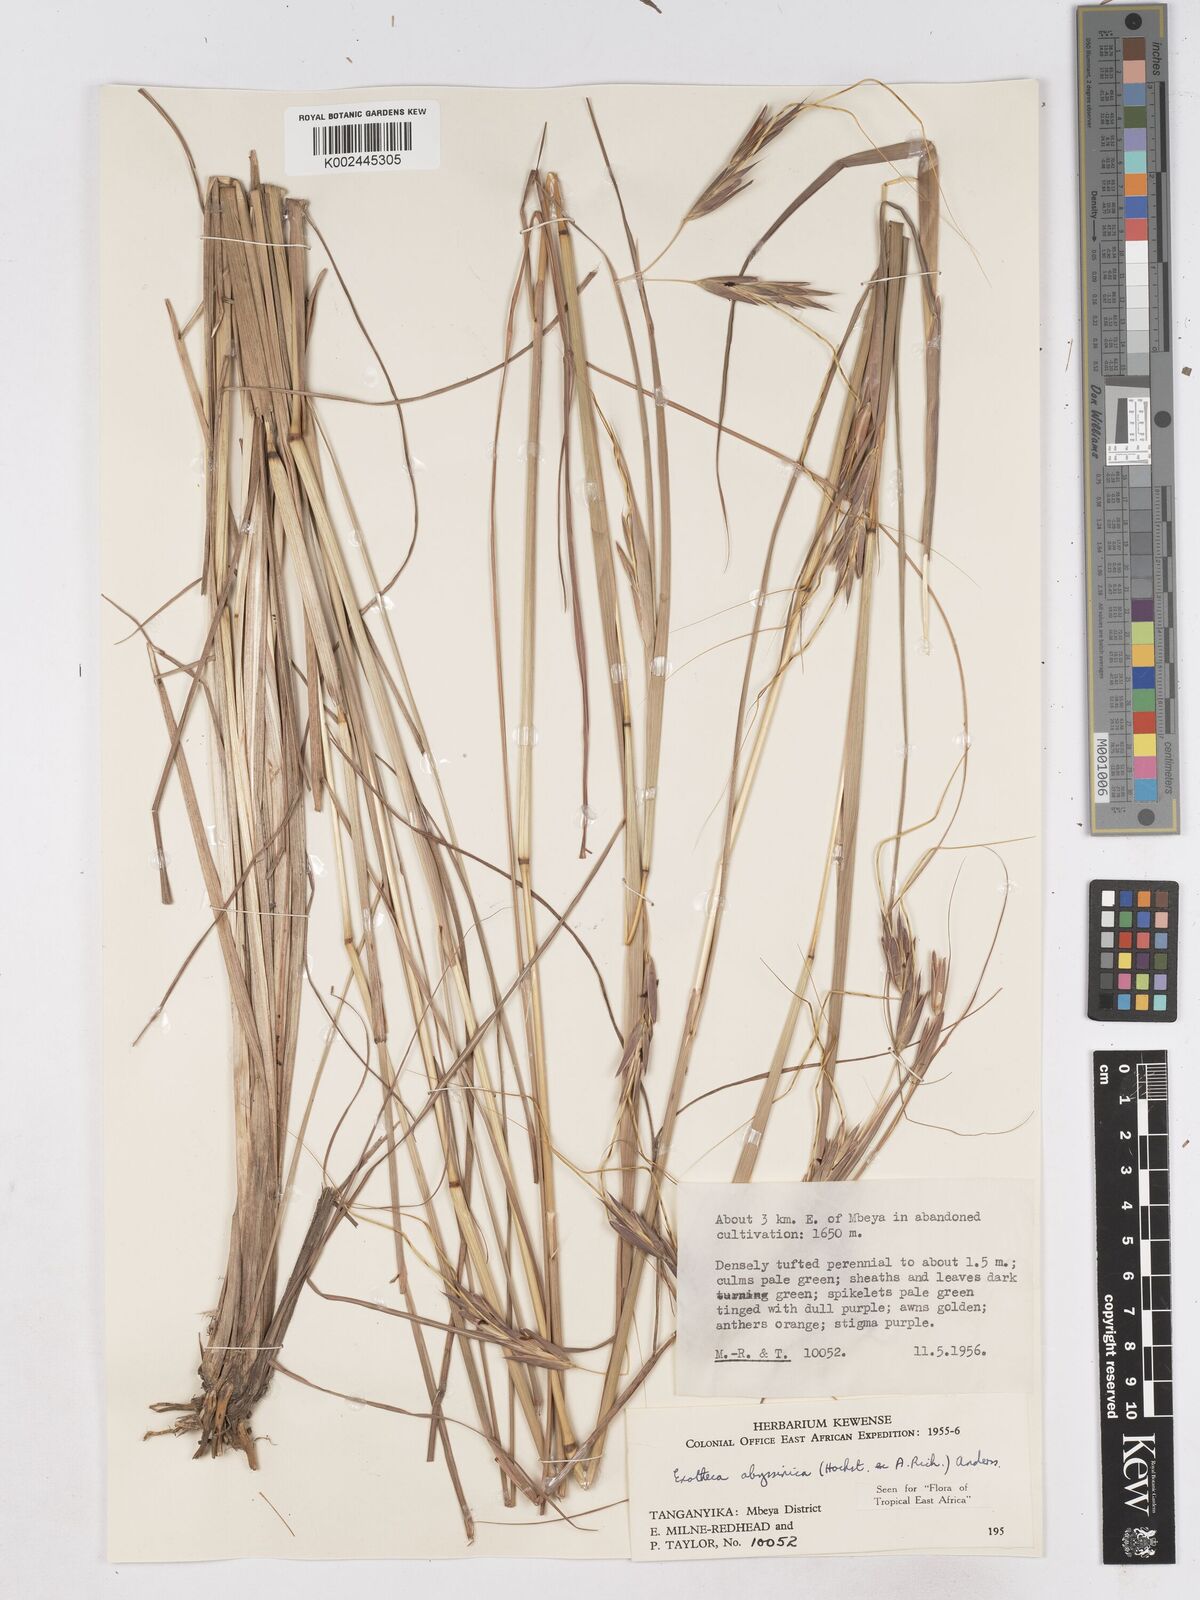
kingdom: Plantae
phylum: Tracheophyta
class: Liliopsida
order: Poales
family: Poaceae
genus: Exotheca
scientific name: Exotheca abyssinica
